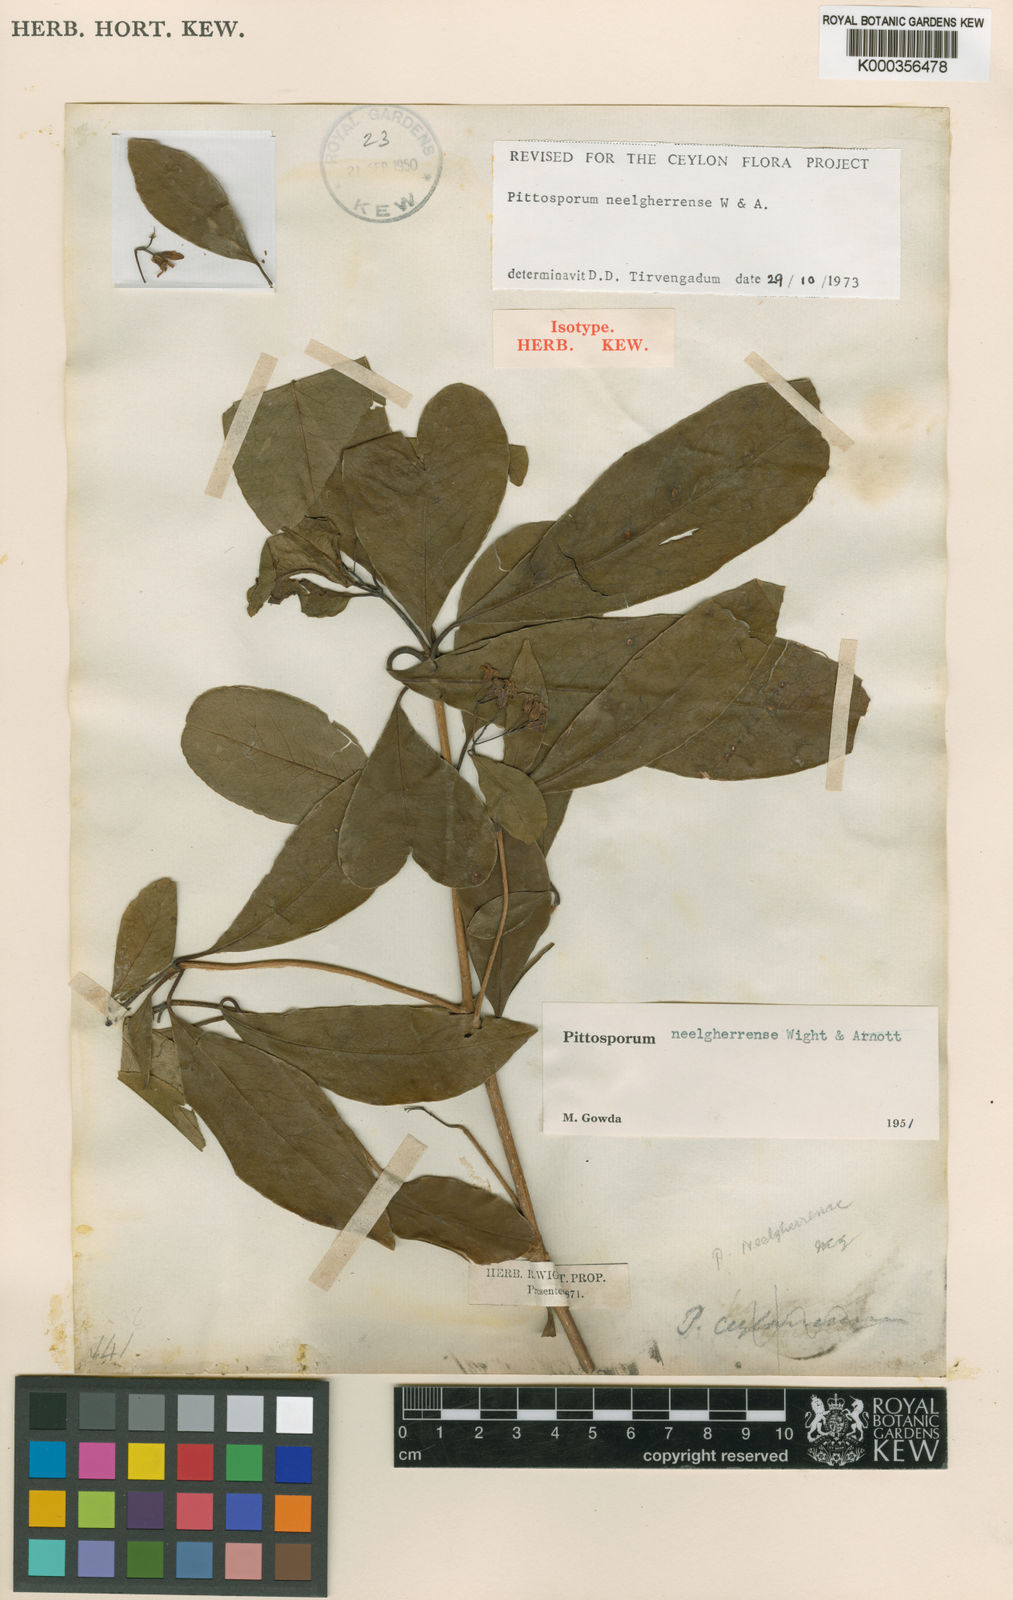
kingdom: Plantae
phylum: Tracheophyta
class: Magnoliopsida
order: Apiales
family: Pittosporaceae
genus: Pittosporum
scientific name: Pittosporum neelgherrense
